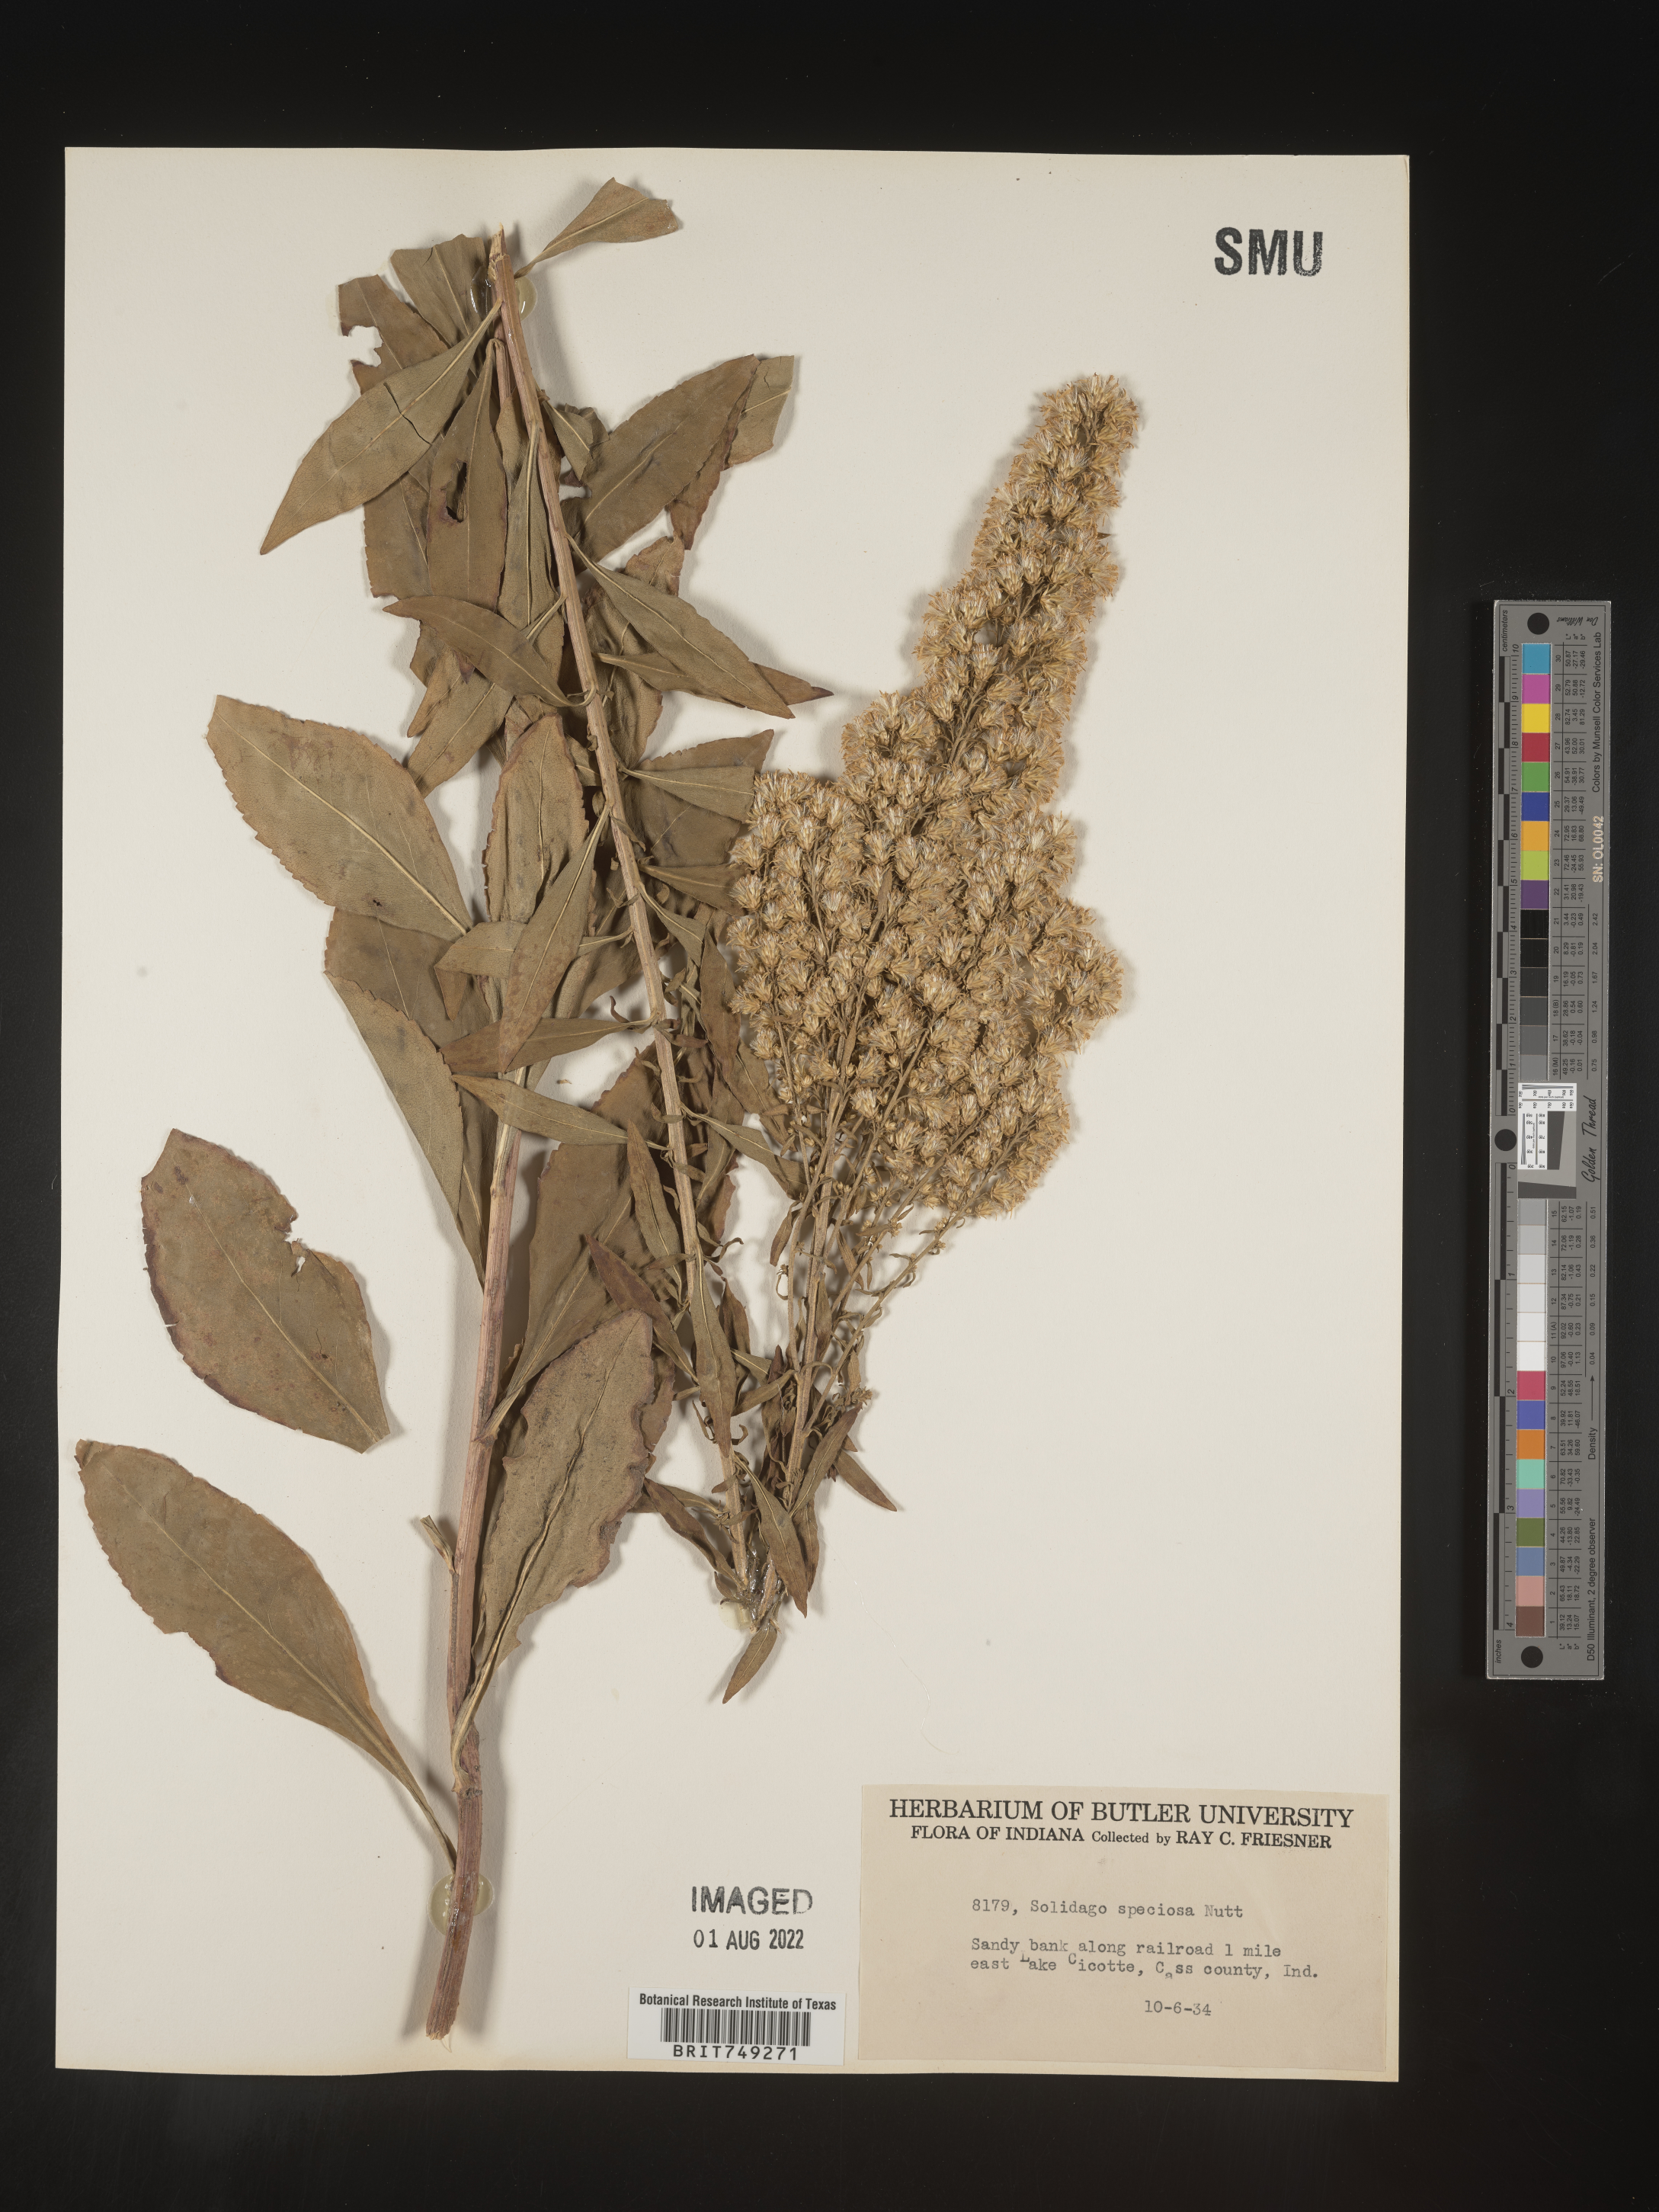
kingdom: Plantae
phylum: Tracheophyta
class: Magnoliopsida
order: Asterales
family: Asteraceae
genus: Solidago
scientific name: Solidago speciosa
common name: Showy goldenrod
